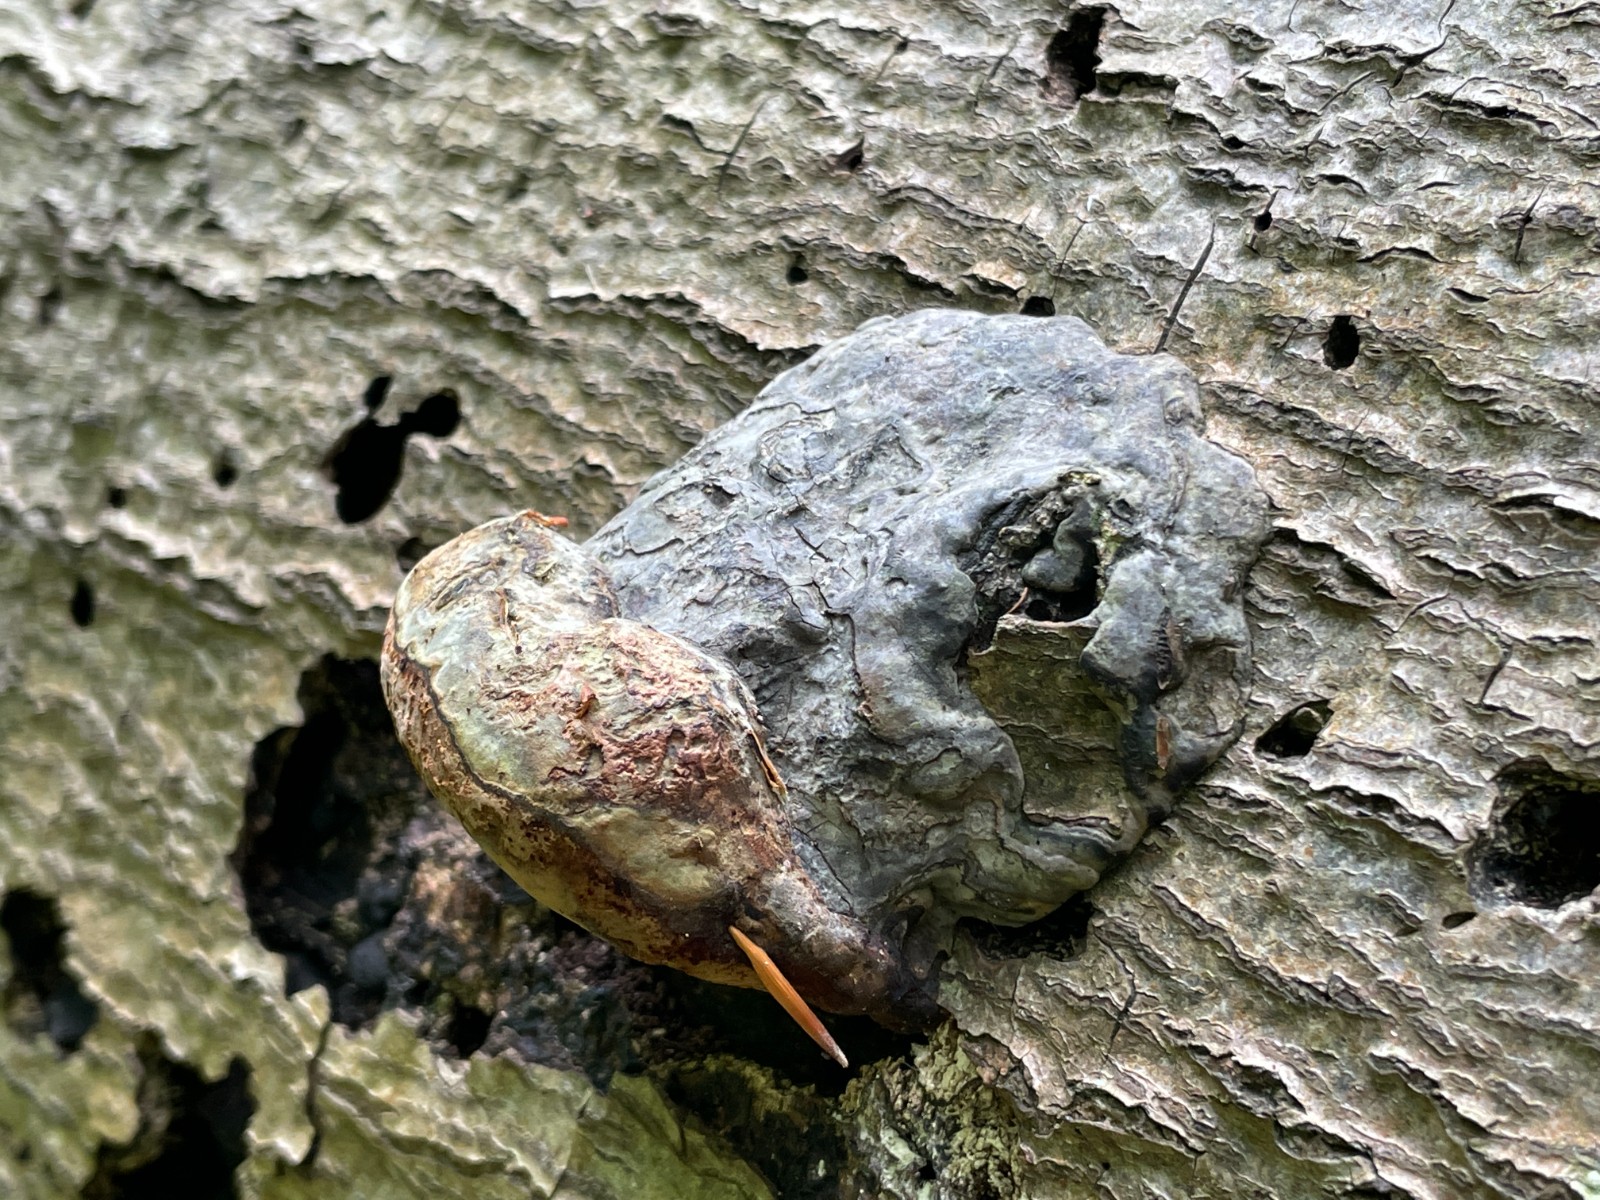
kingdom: Fungi
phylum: Basidiomycota
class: Agaricomycetes
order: Polyporales
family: Polyporaceae
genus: Fomes
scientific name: Fomes fomentarius
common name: tøndersvamp
